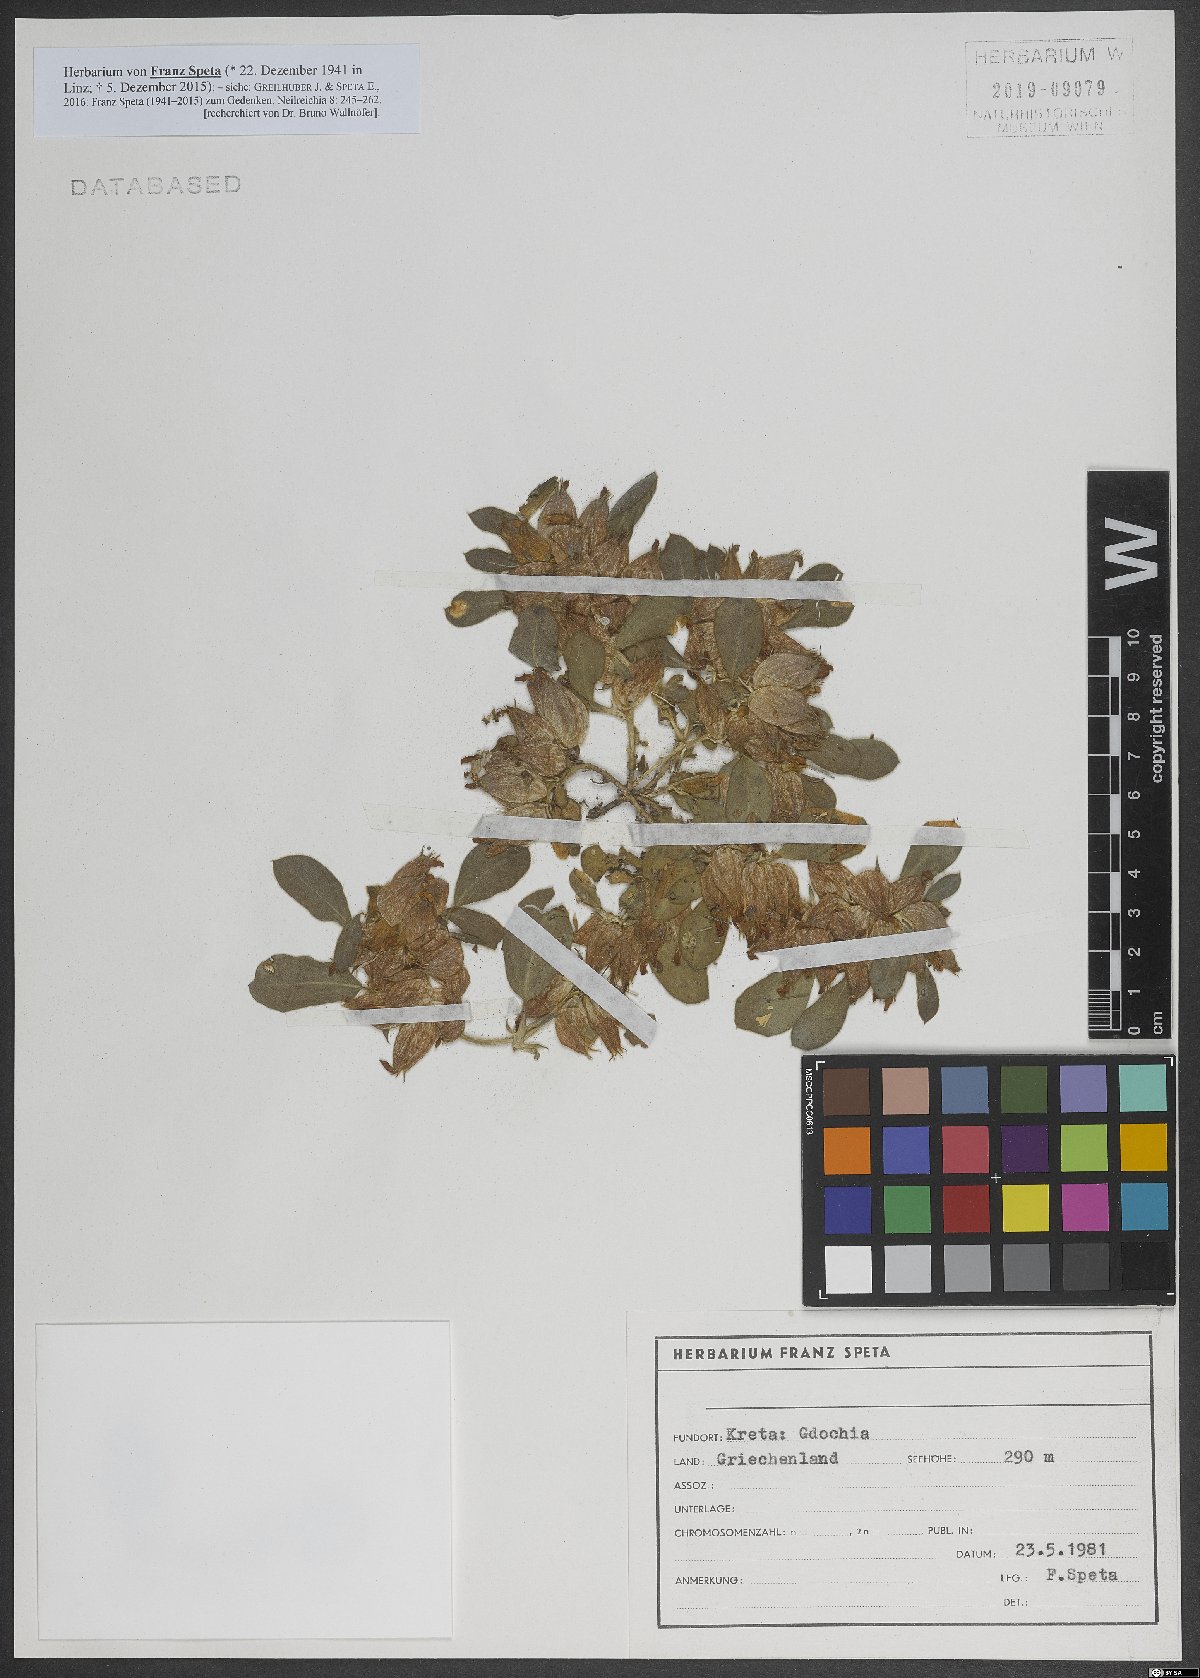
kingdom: Plantae
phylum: Tracheophyta
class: Magnoliopsida
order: Fabales
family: Fabaceae
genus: Tripodion
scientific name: Tripodion tetraphyllum
